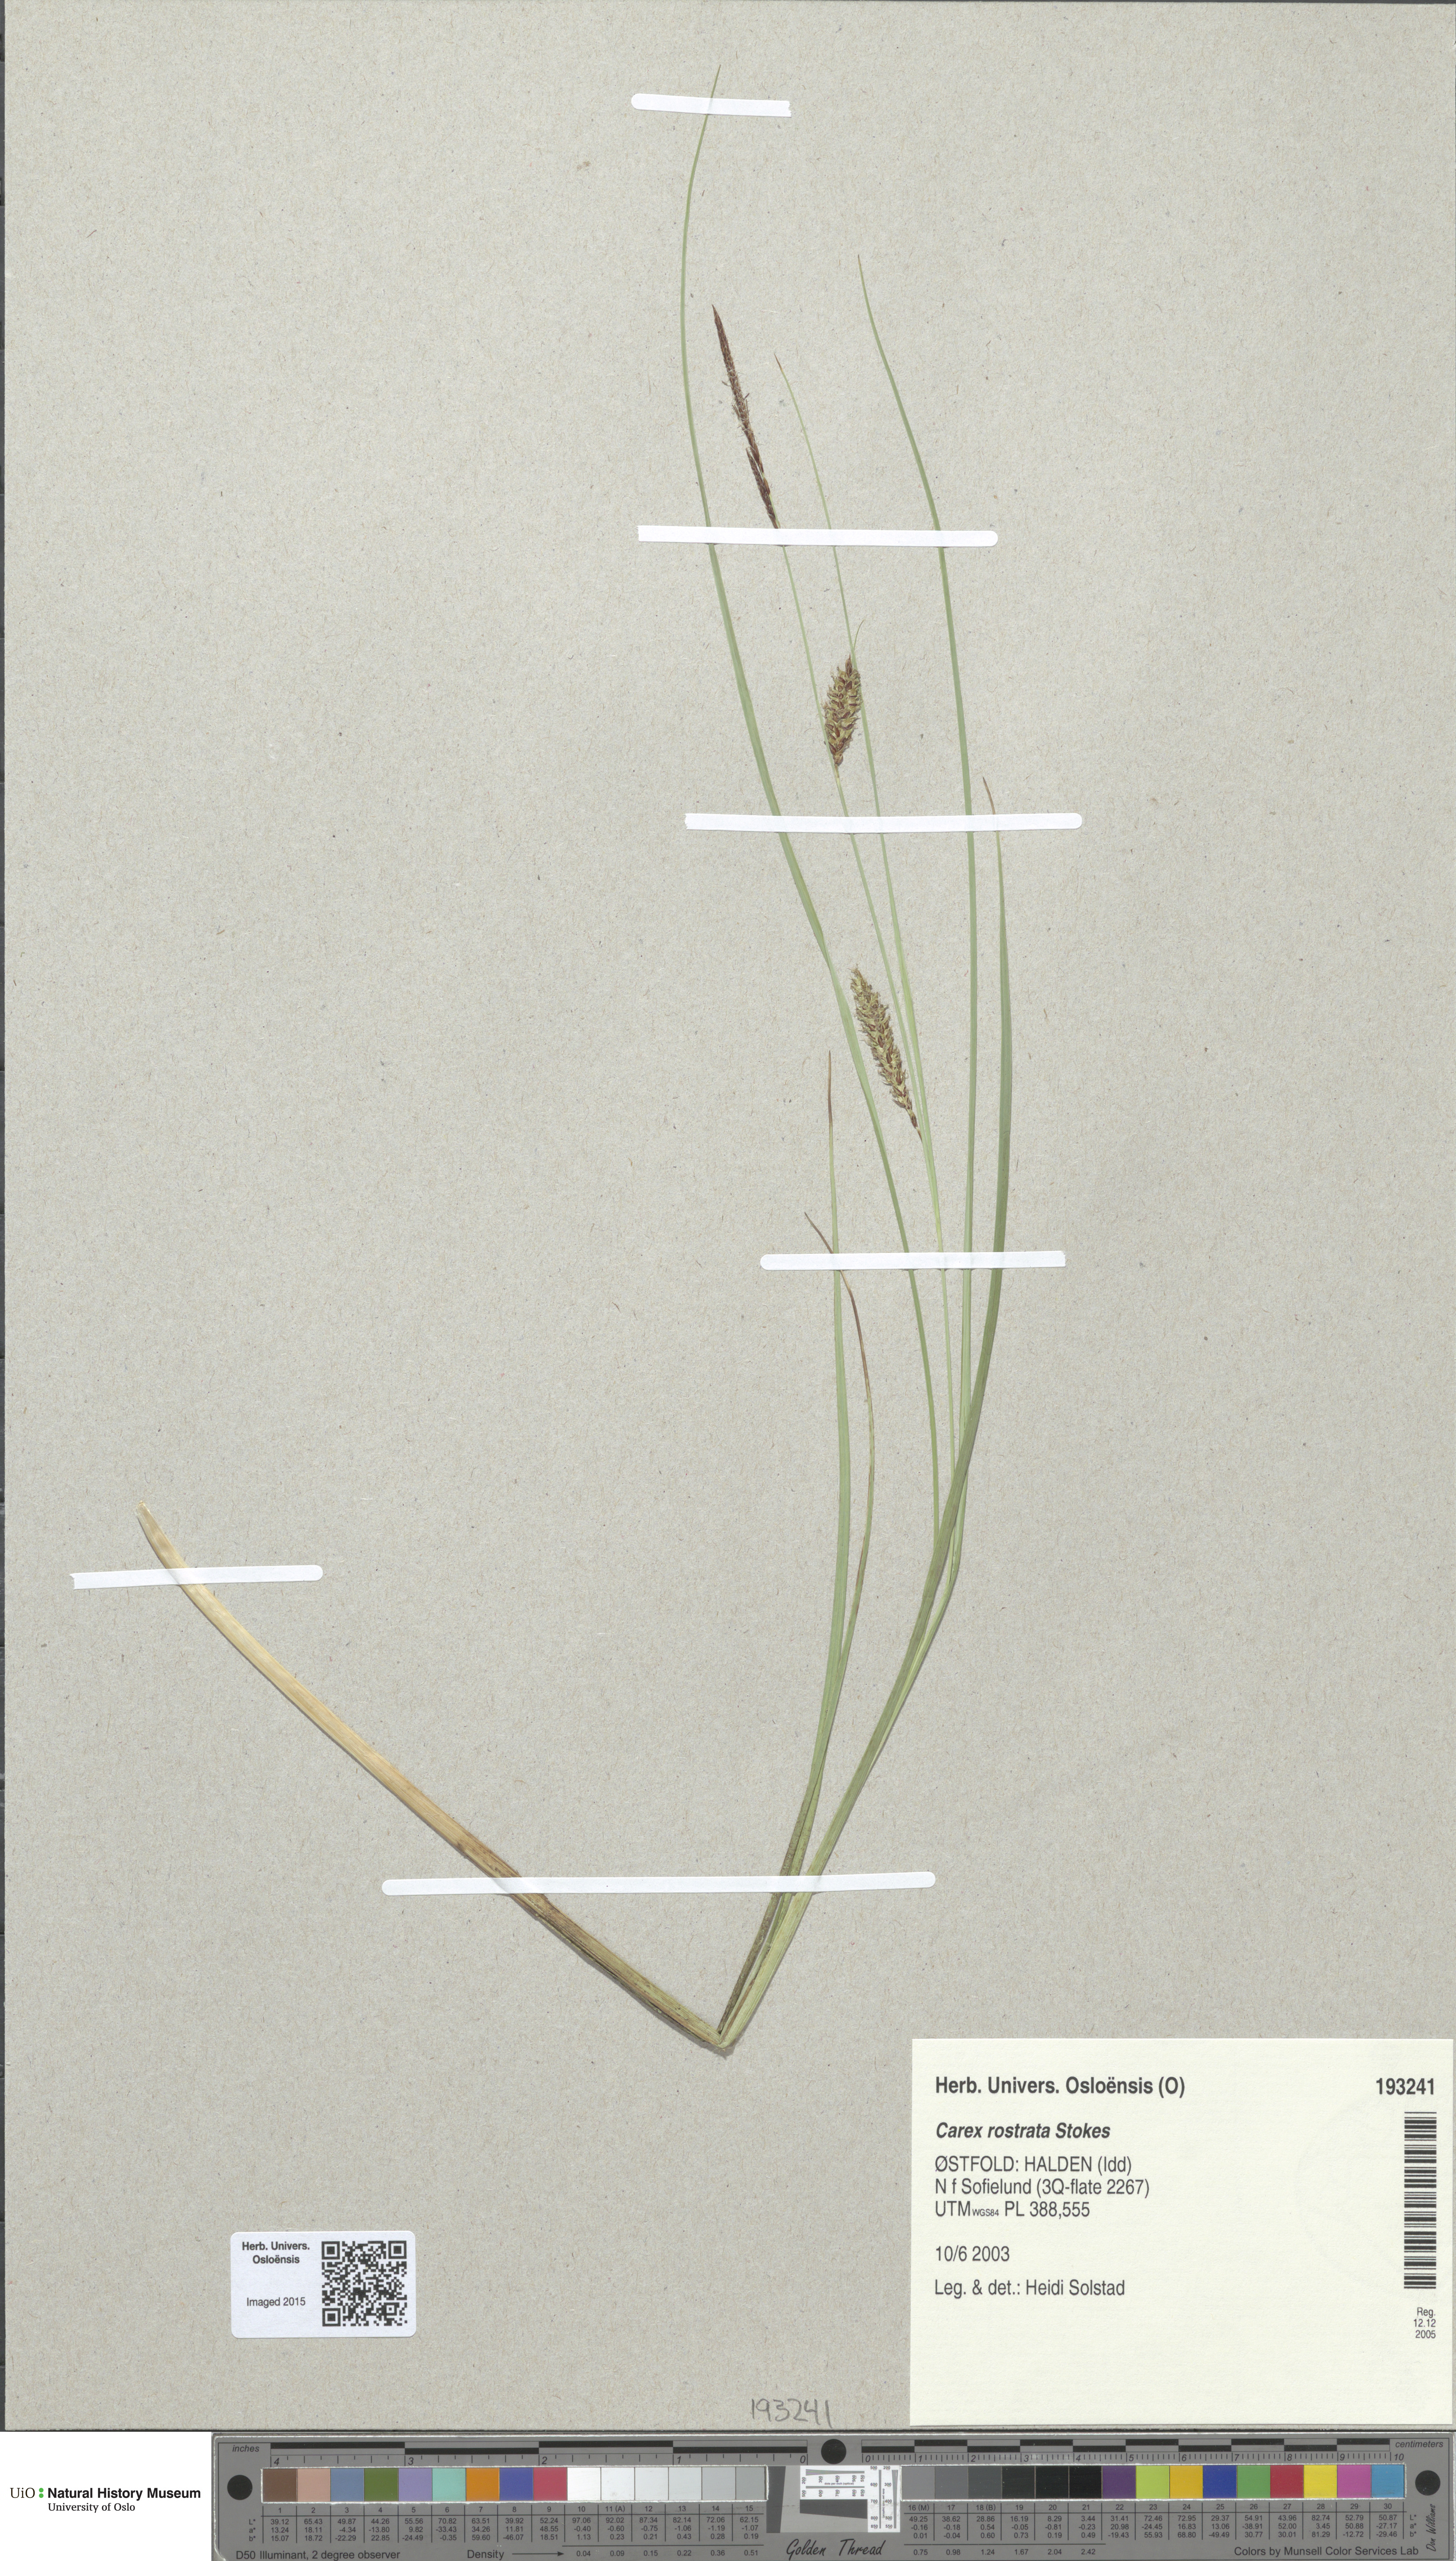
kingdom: Plantae
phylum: Tracheophyta
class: Liliopsida
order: Poales
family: Cyperaceae
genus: Carex
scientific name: Carex rostrata
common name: Bottle sedge
